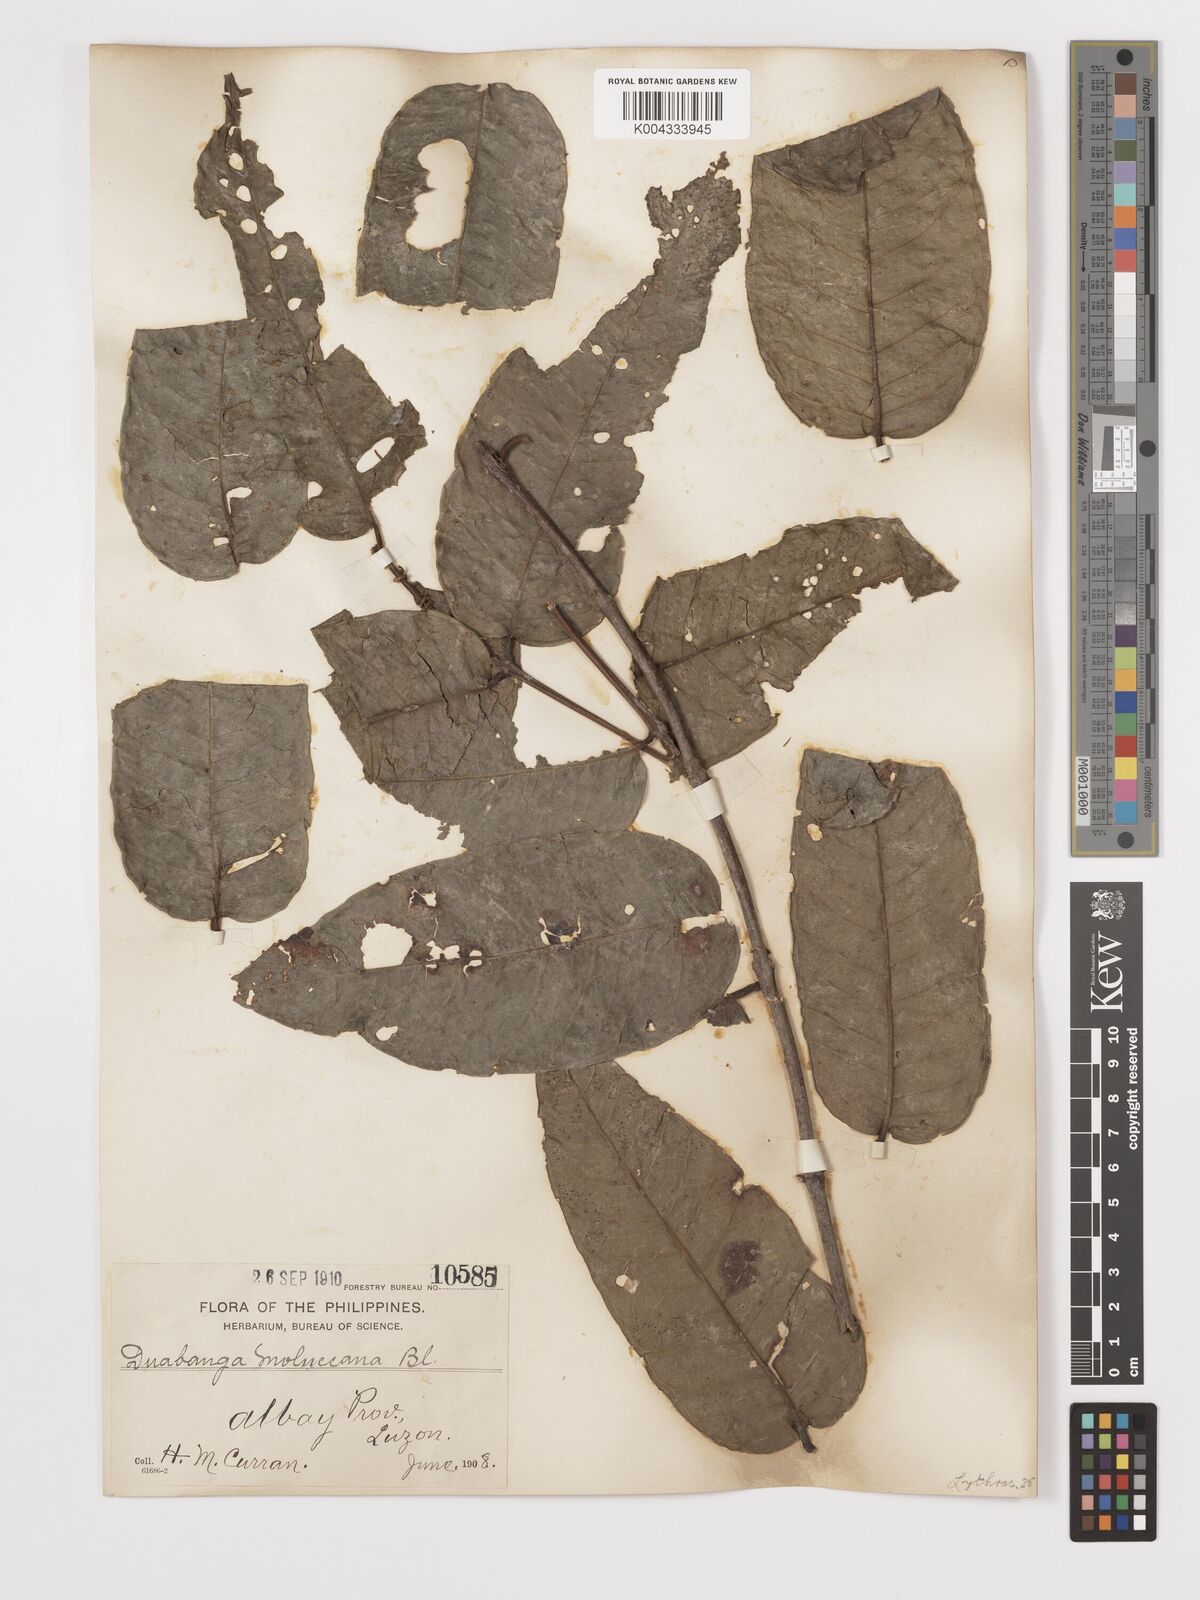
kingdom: Plantae
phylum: Tracheophyta
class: Magnoliopsida
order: Myrtales
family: Lythraceae
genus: Duabanga
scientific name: Duabanga moluccana
